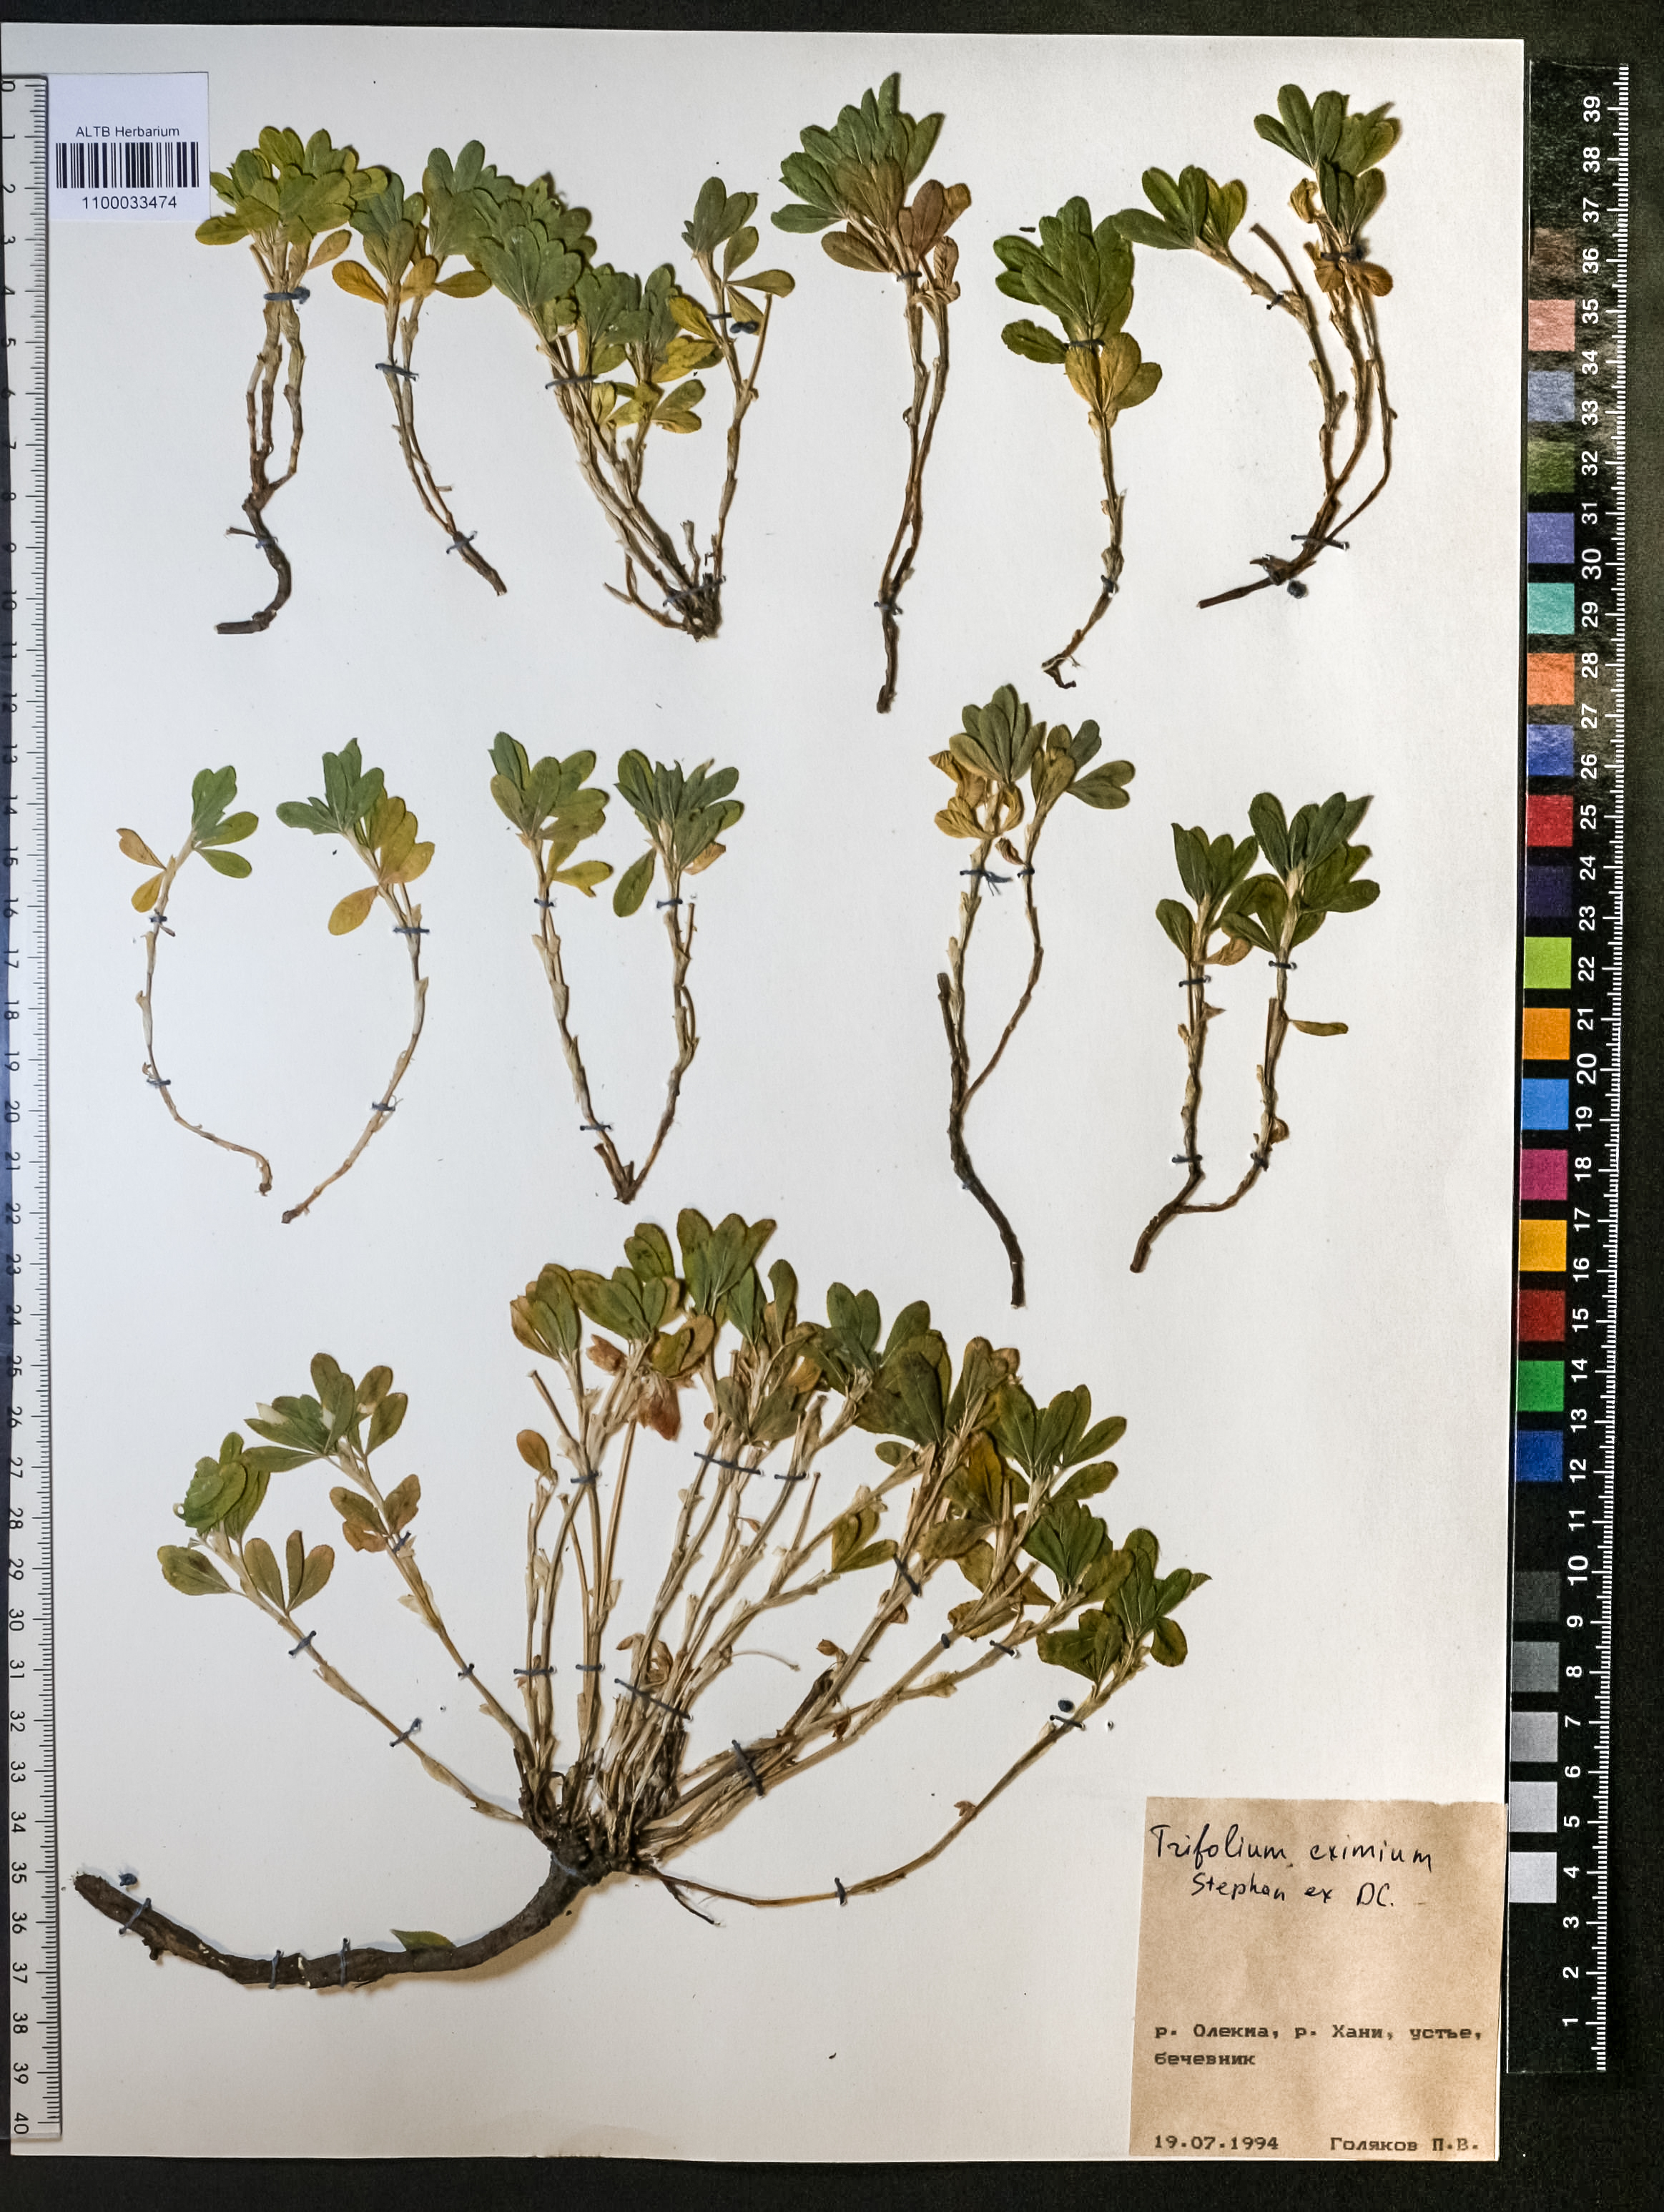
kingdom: Plantae
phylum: Tracheophyta
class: Magnoliopsida
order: Fabales
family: Fabaceae
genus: Trifolium
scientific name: Trifolium eximium
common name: Excellent clover
